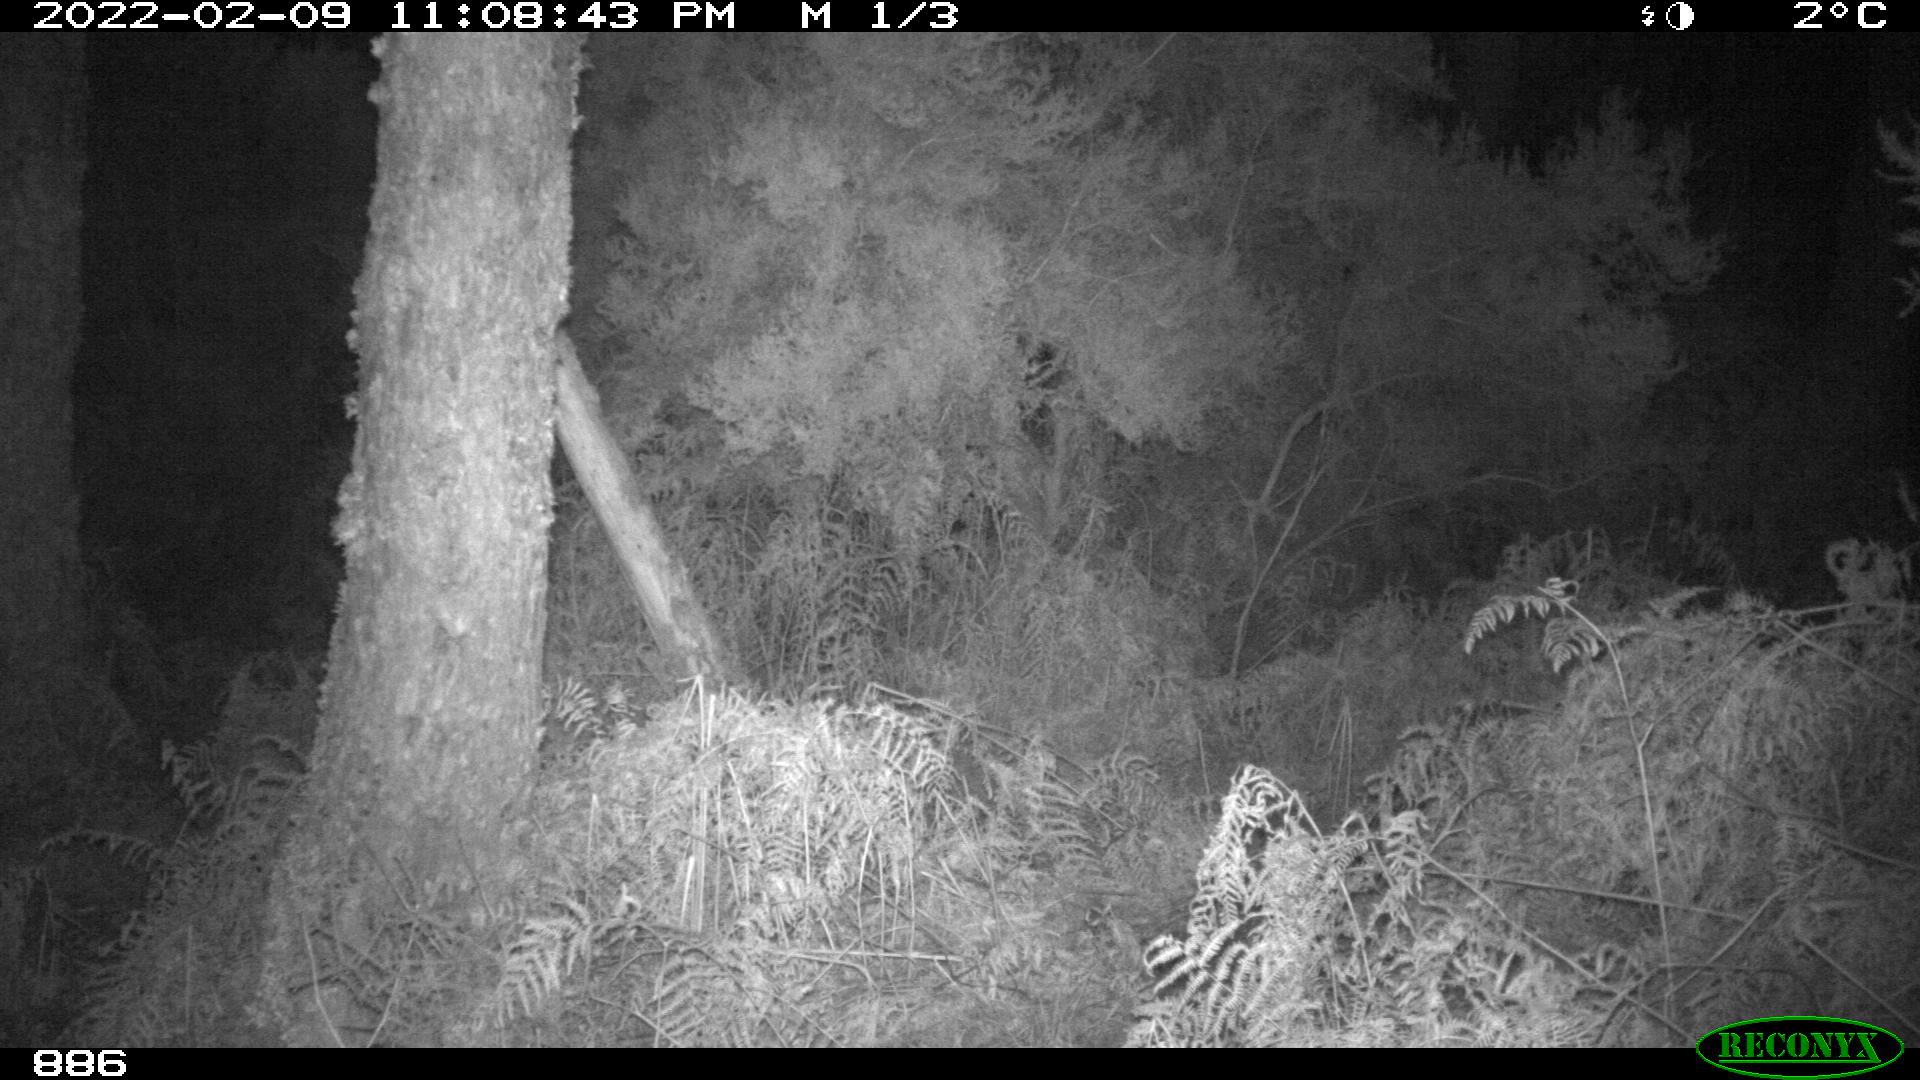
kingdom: Animalia
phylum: Chordata
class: Mammalia
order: Artiodactyla
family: Suidae
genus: Sus
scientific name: Sus scrofa
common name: Wild boar
